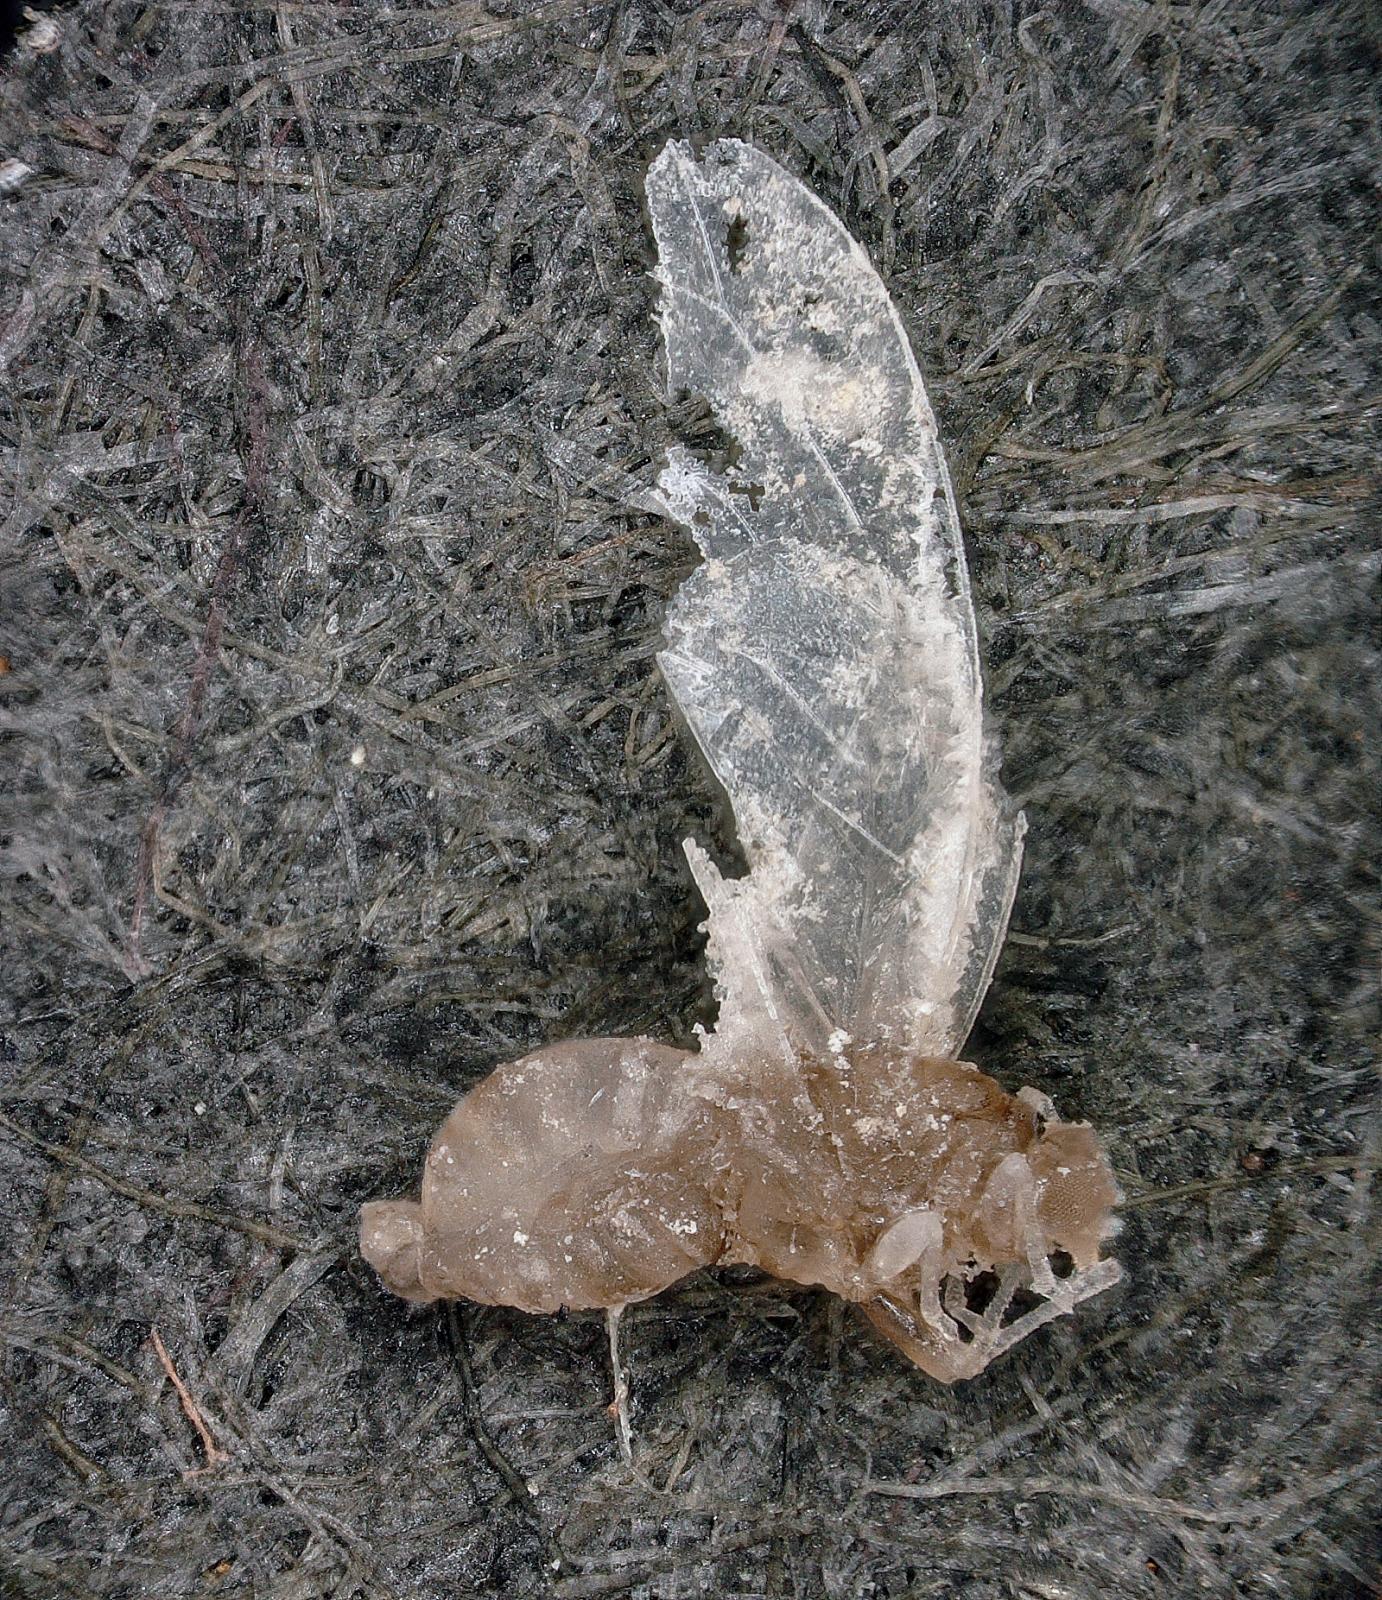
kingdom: Animalia
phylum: Arthropoda
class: Insecta
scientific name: Insecta
